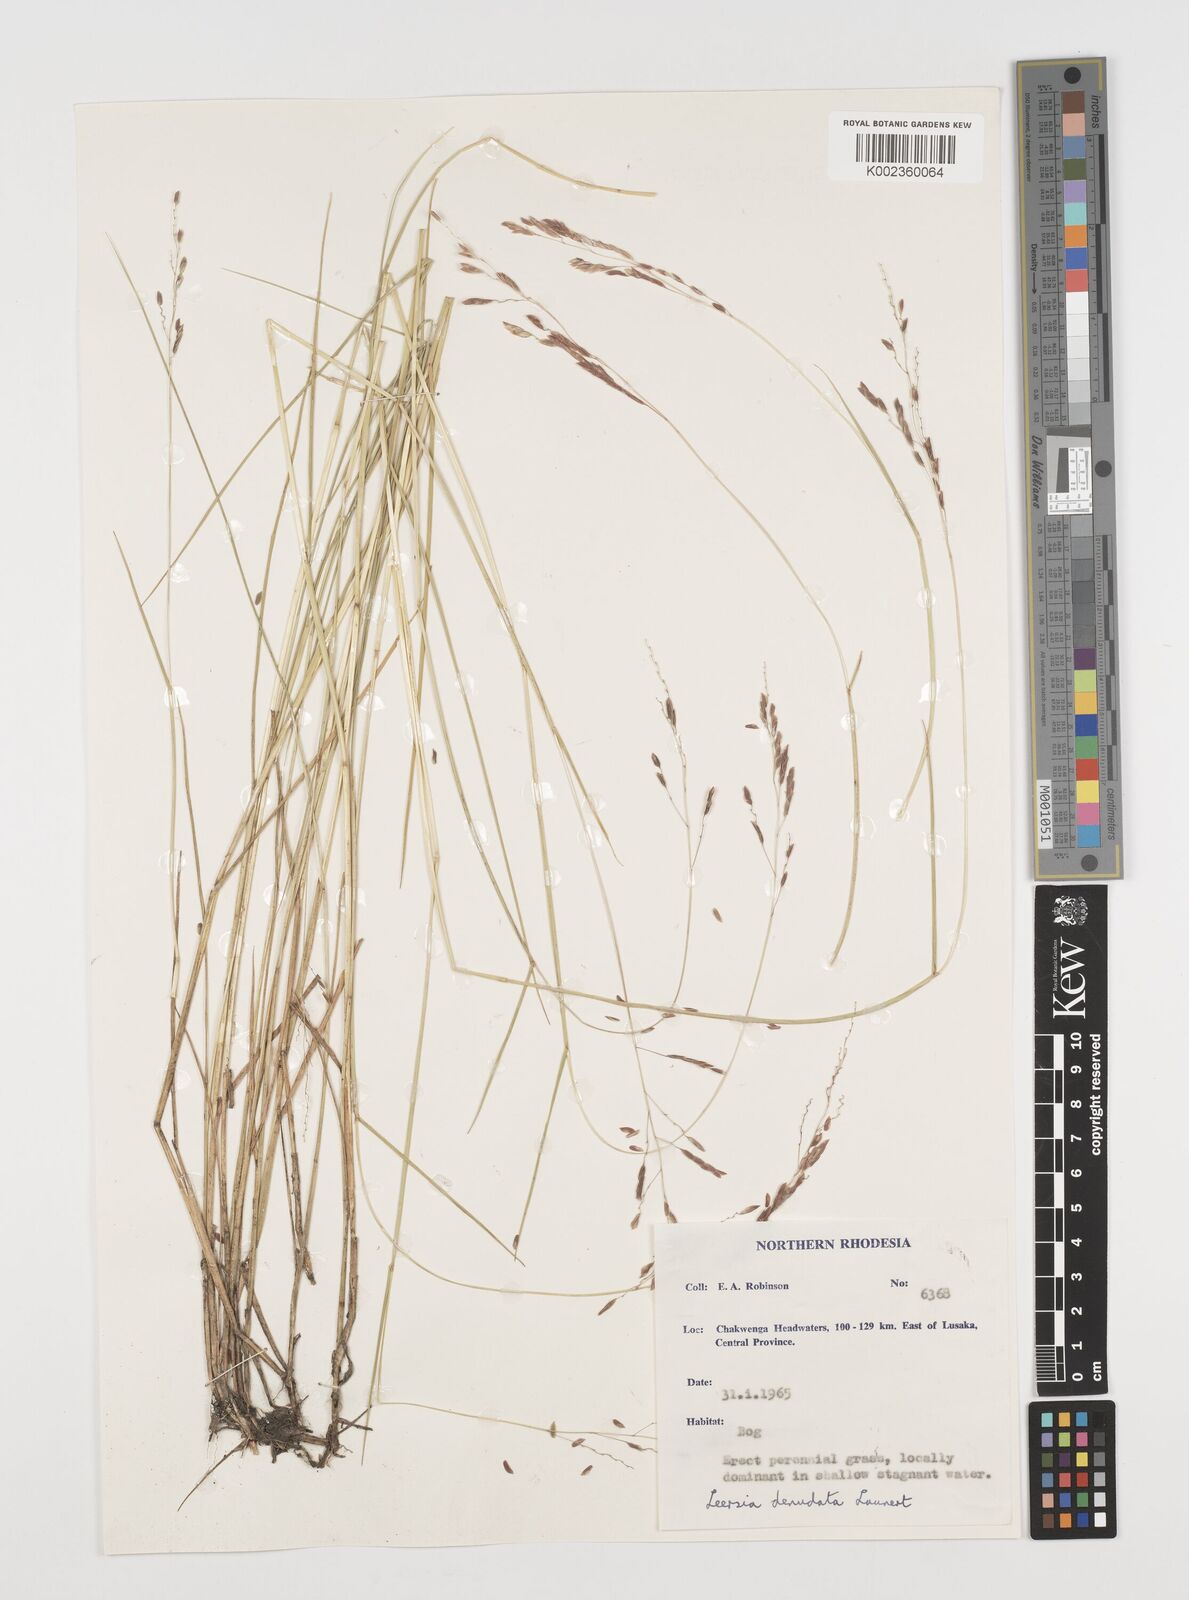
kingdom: Plantae
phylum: Tracheophyta
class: Liliopsida
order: Poales
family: Poaceae
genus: Leersia
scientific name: Leersia denudata
